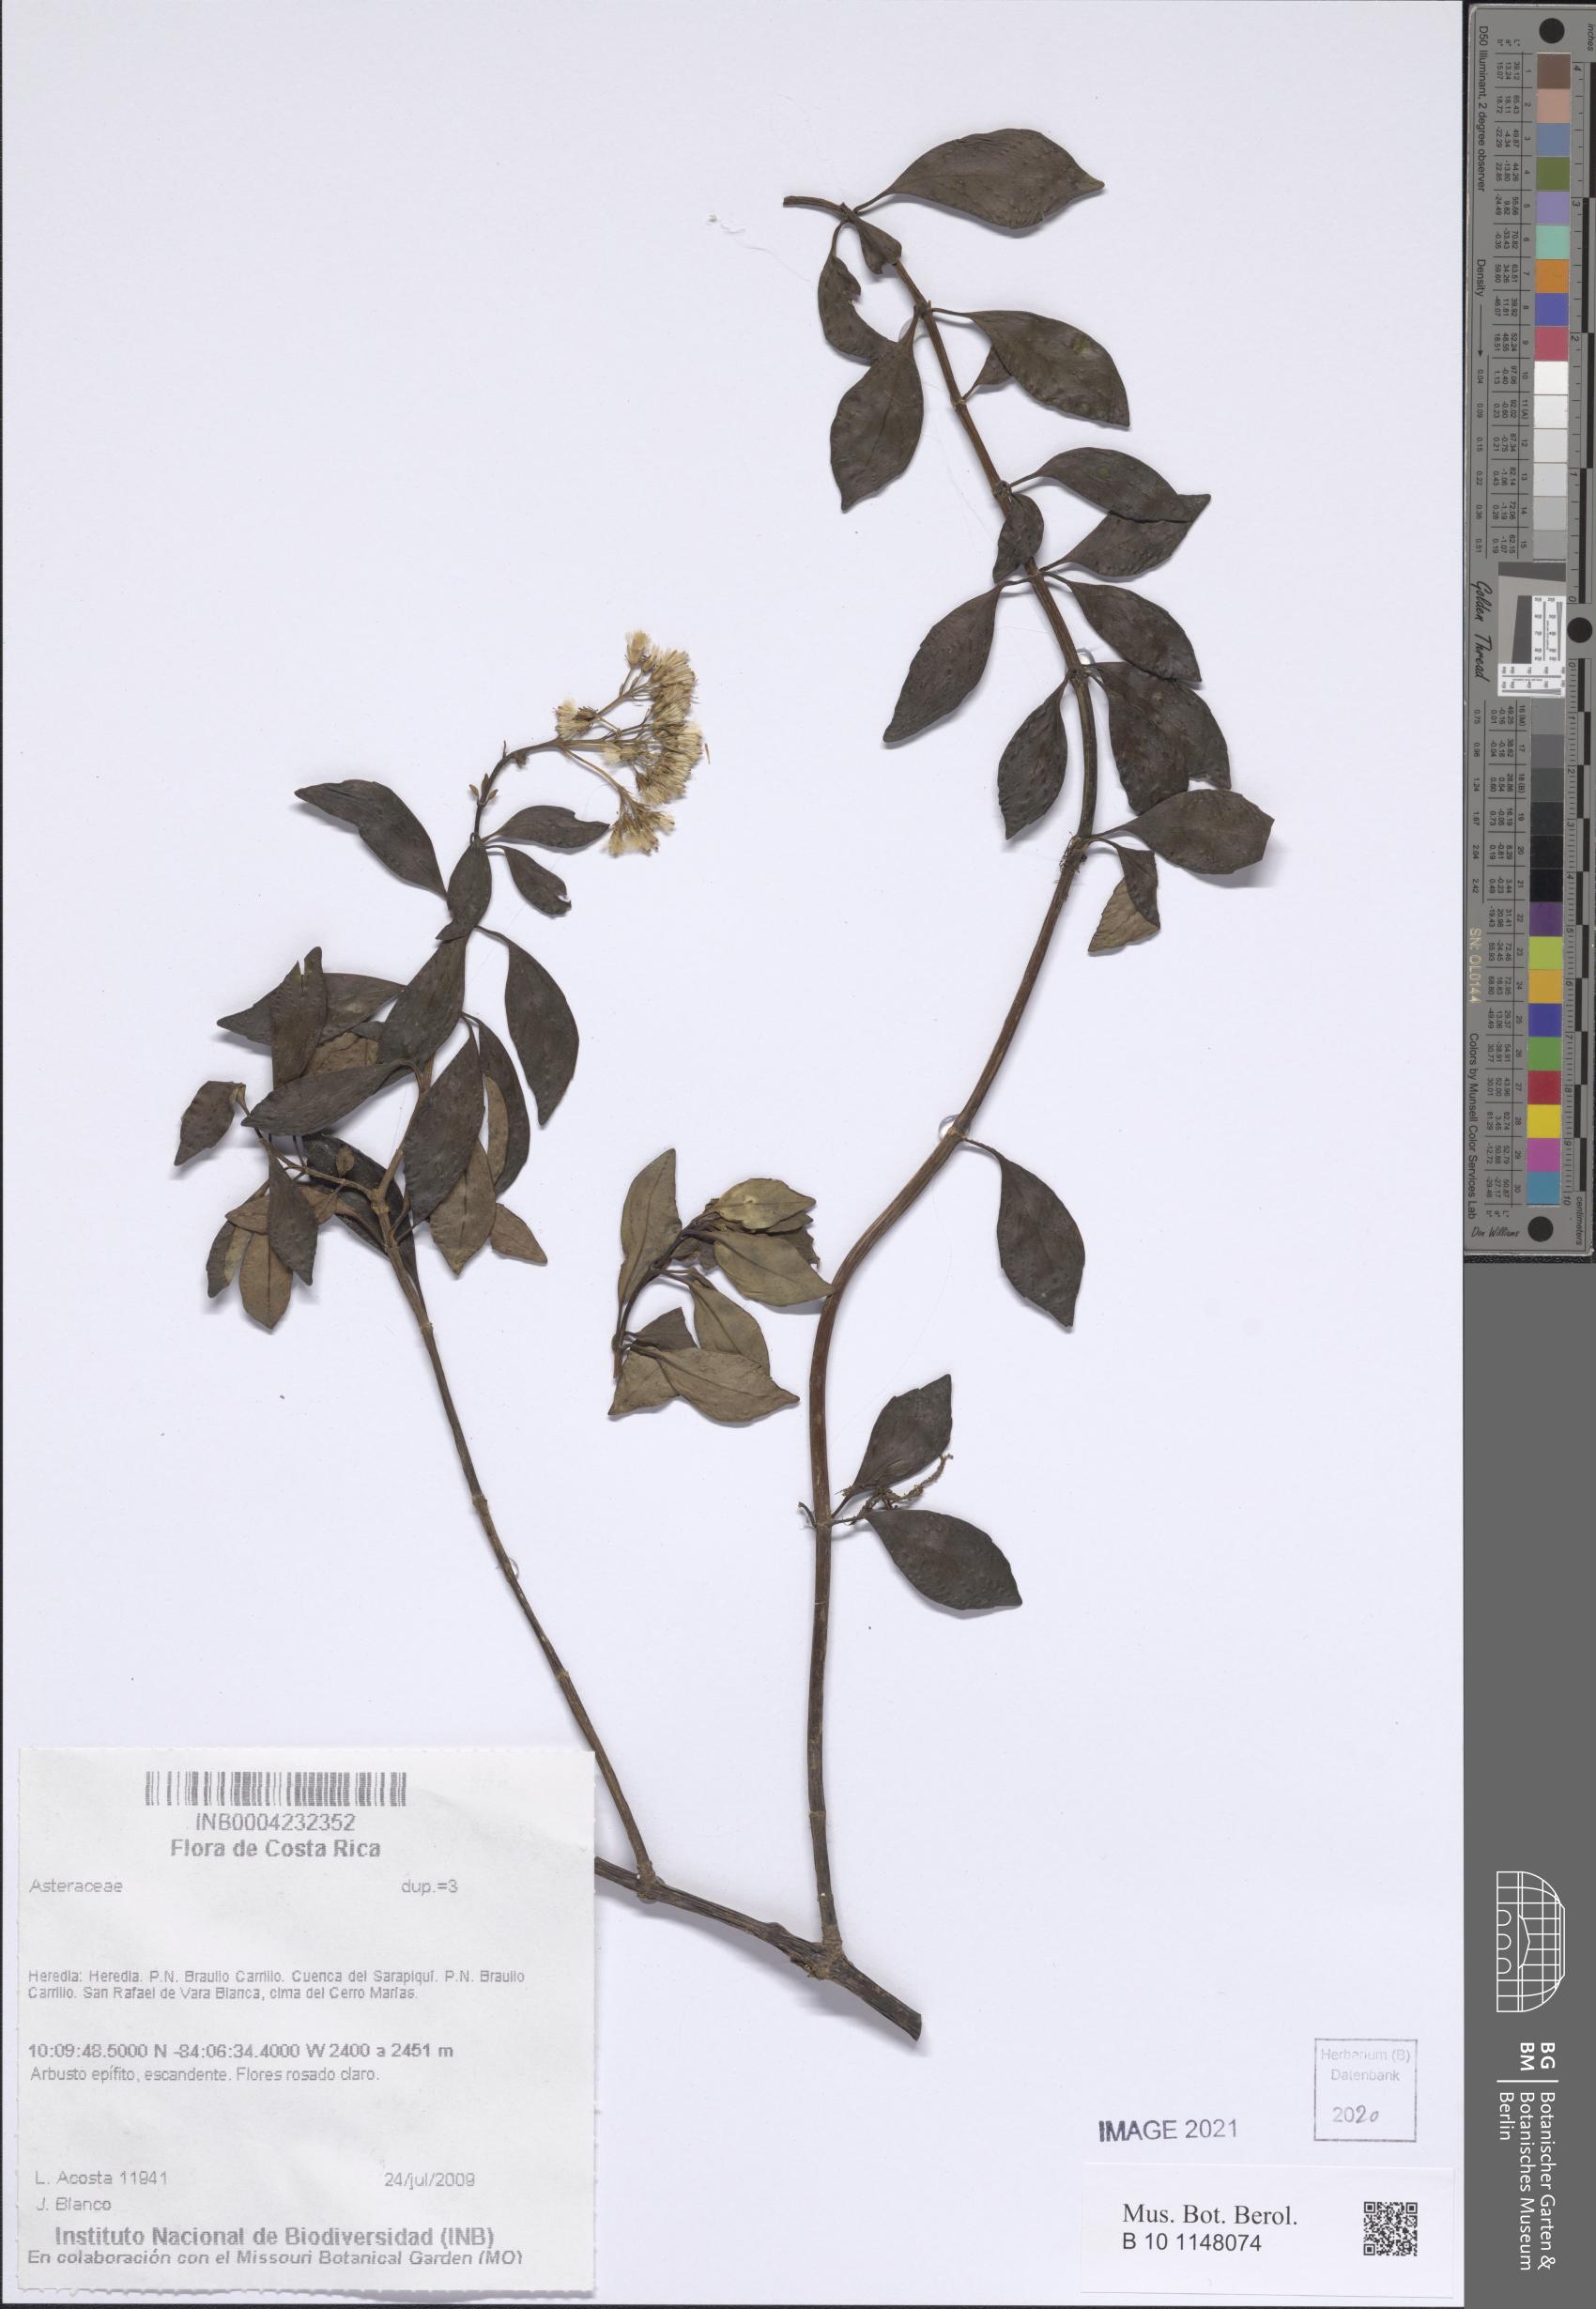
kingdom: Plantae
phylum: Tracheophyta
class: Magnoliopsida
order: Asterales
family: Asteraceae
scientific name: Asteraceae
